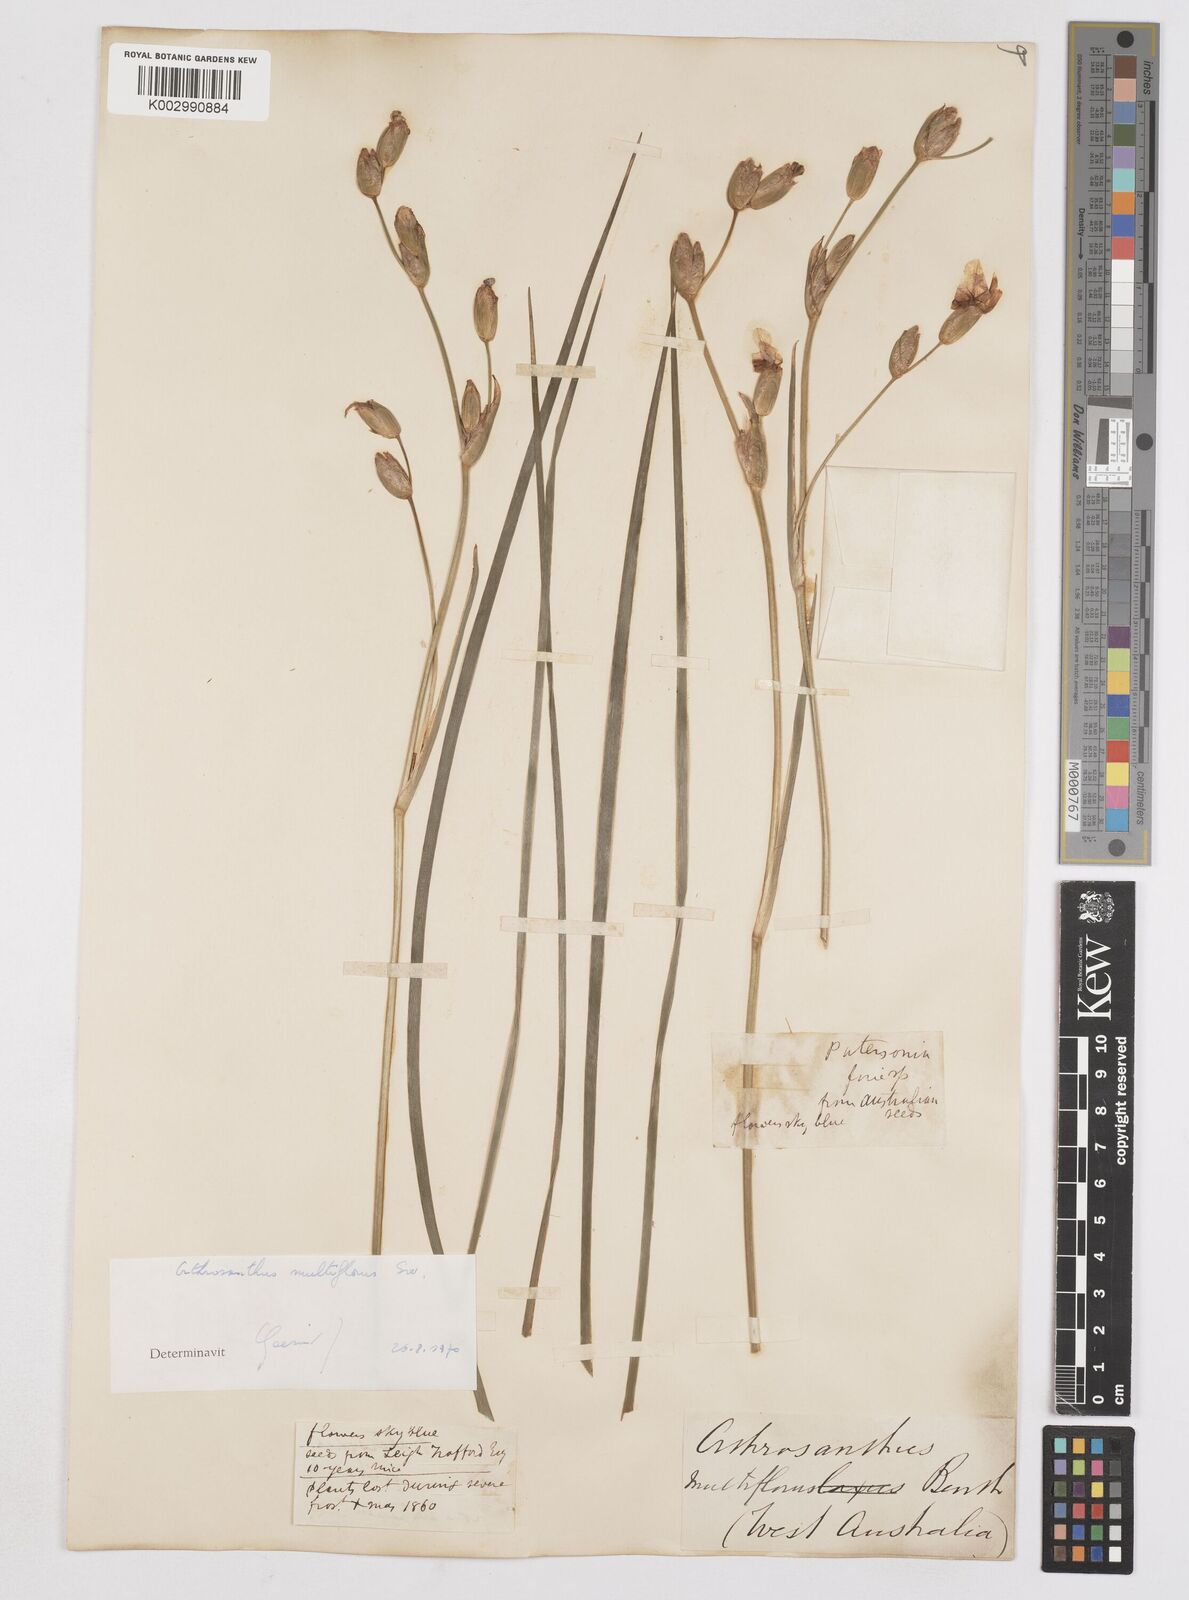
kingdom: Plantae
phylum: Tracheophyta
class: Liliopsida
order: Asparagales
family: Iridaceae
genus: Orthrosanthus
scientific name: Orthrosanthus multiflorus
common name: Morning-flag
